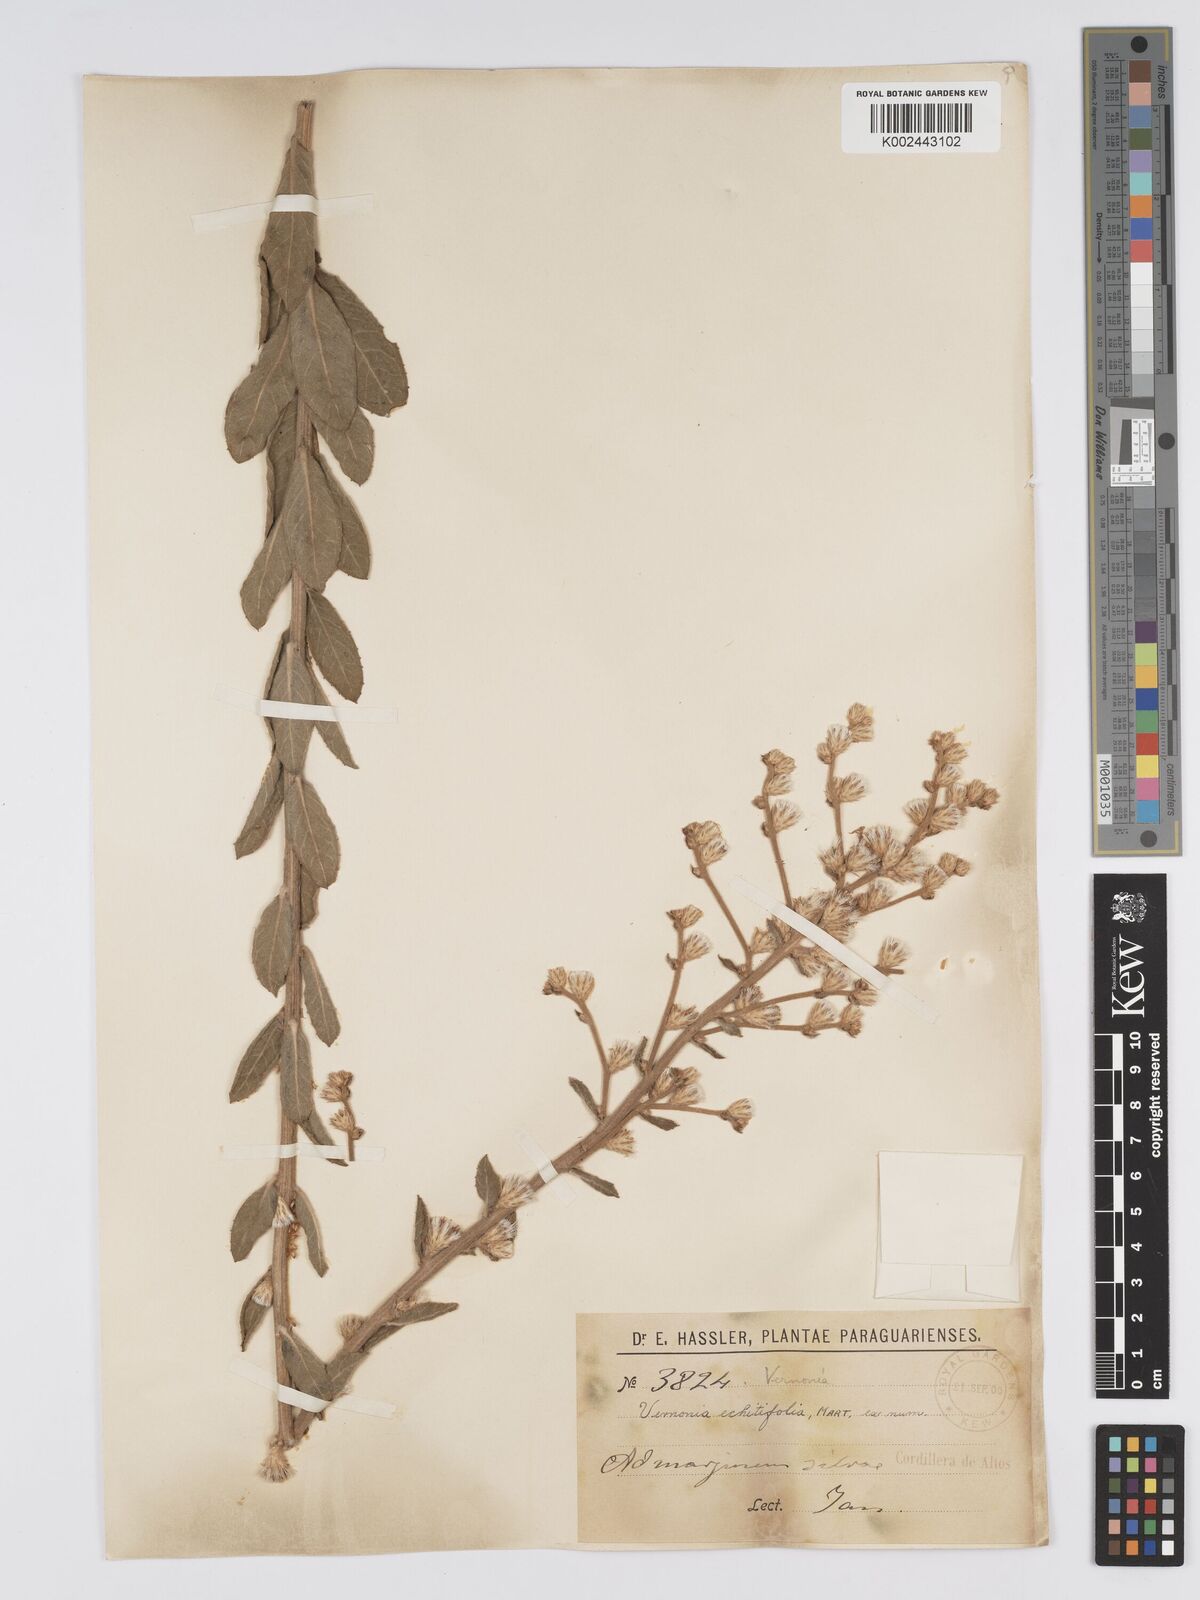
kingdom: Plantae
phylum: Tracheophyta
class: Magnoliopsida
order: Asterales
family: Asteraceae
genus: Acilepidopsis
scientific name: Acilepidopsis echitifolia
